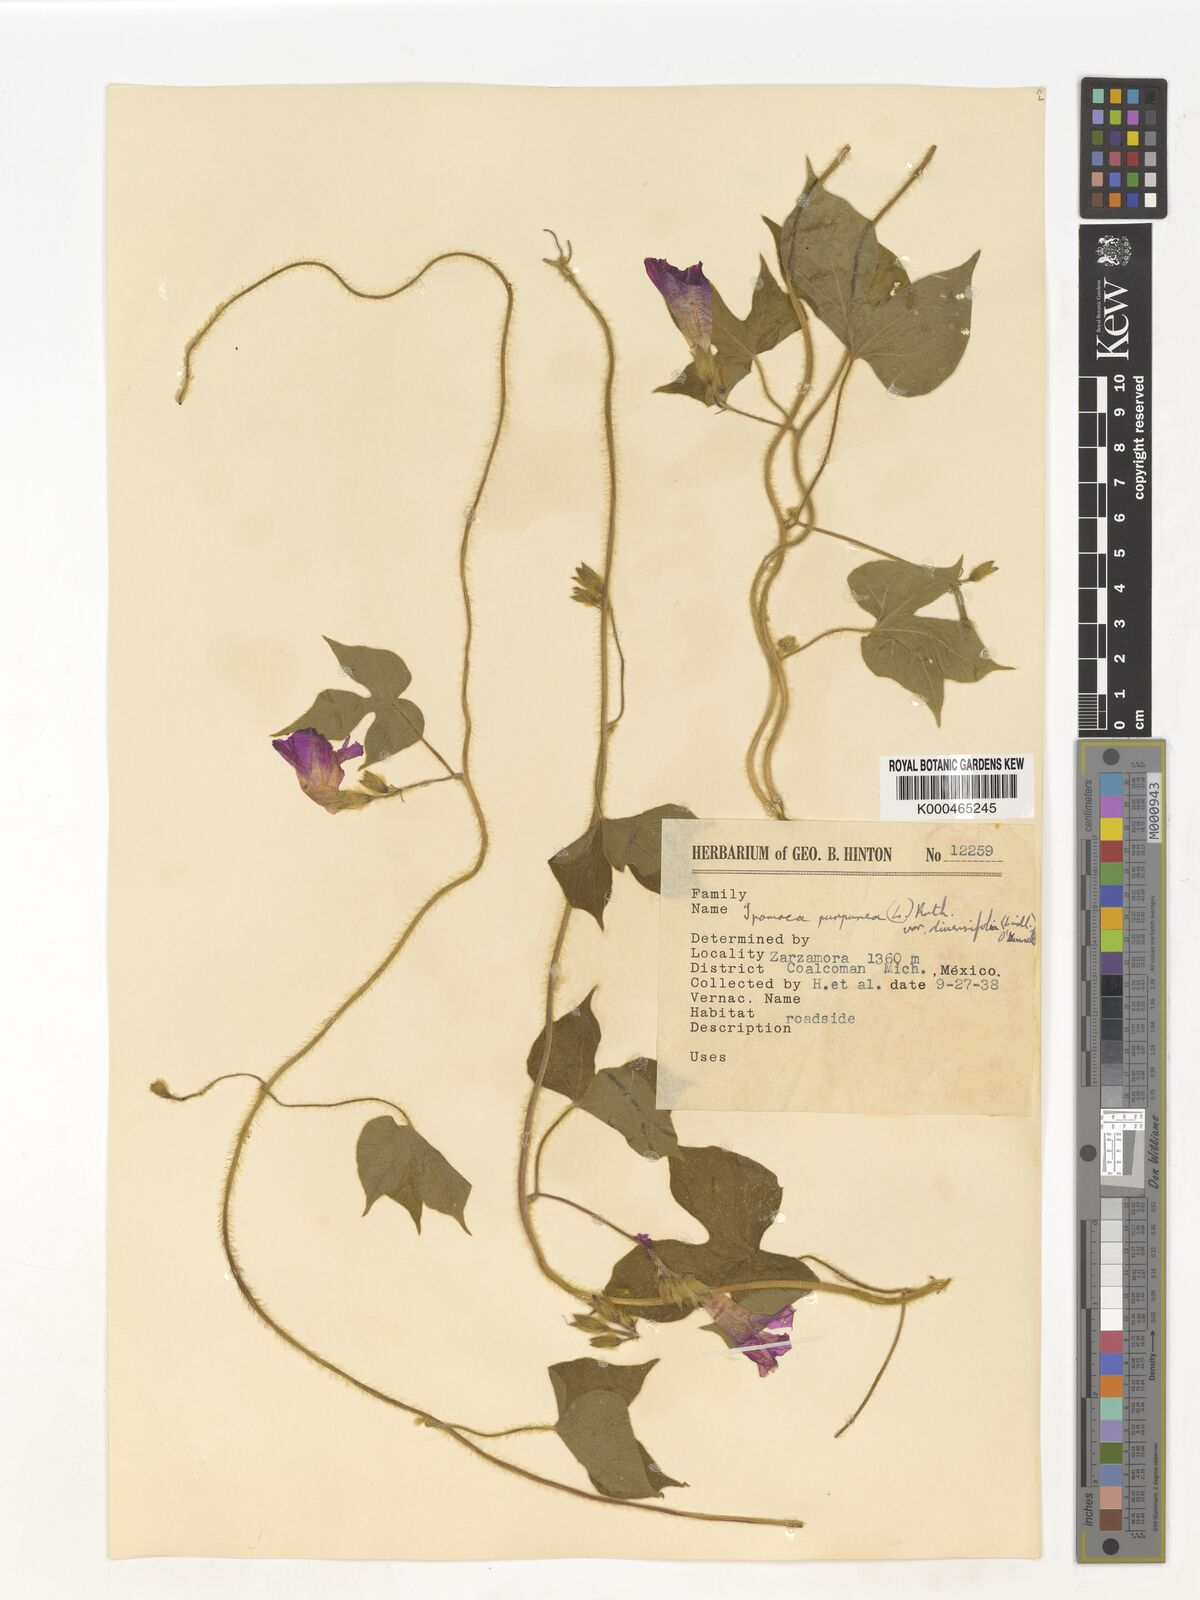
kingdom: Plantae
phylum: Tracheophyta
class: Magnoliopsida
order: Solanales
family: Convolvulaceae
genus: Ipomoea
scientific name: Ipomoea purpurea
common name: Common morning-glory
